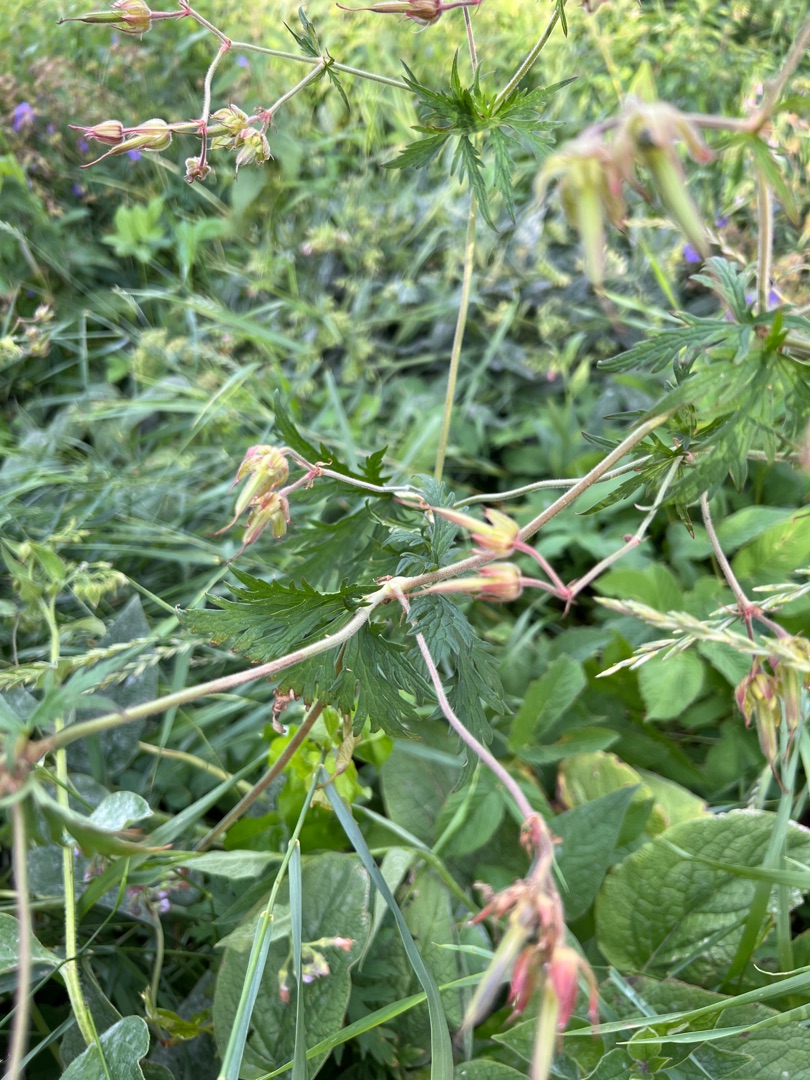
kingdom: Plantae
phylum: Tracheophyta
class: Magnoliopsida
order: Geraniales
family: Geraniaceae
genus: Geranium
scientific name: Geranium pratense
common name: Eng-storkenæb
